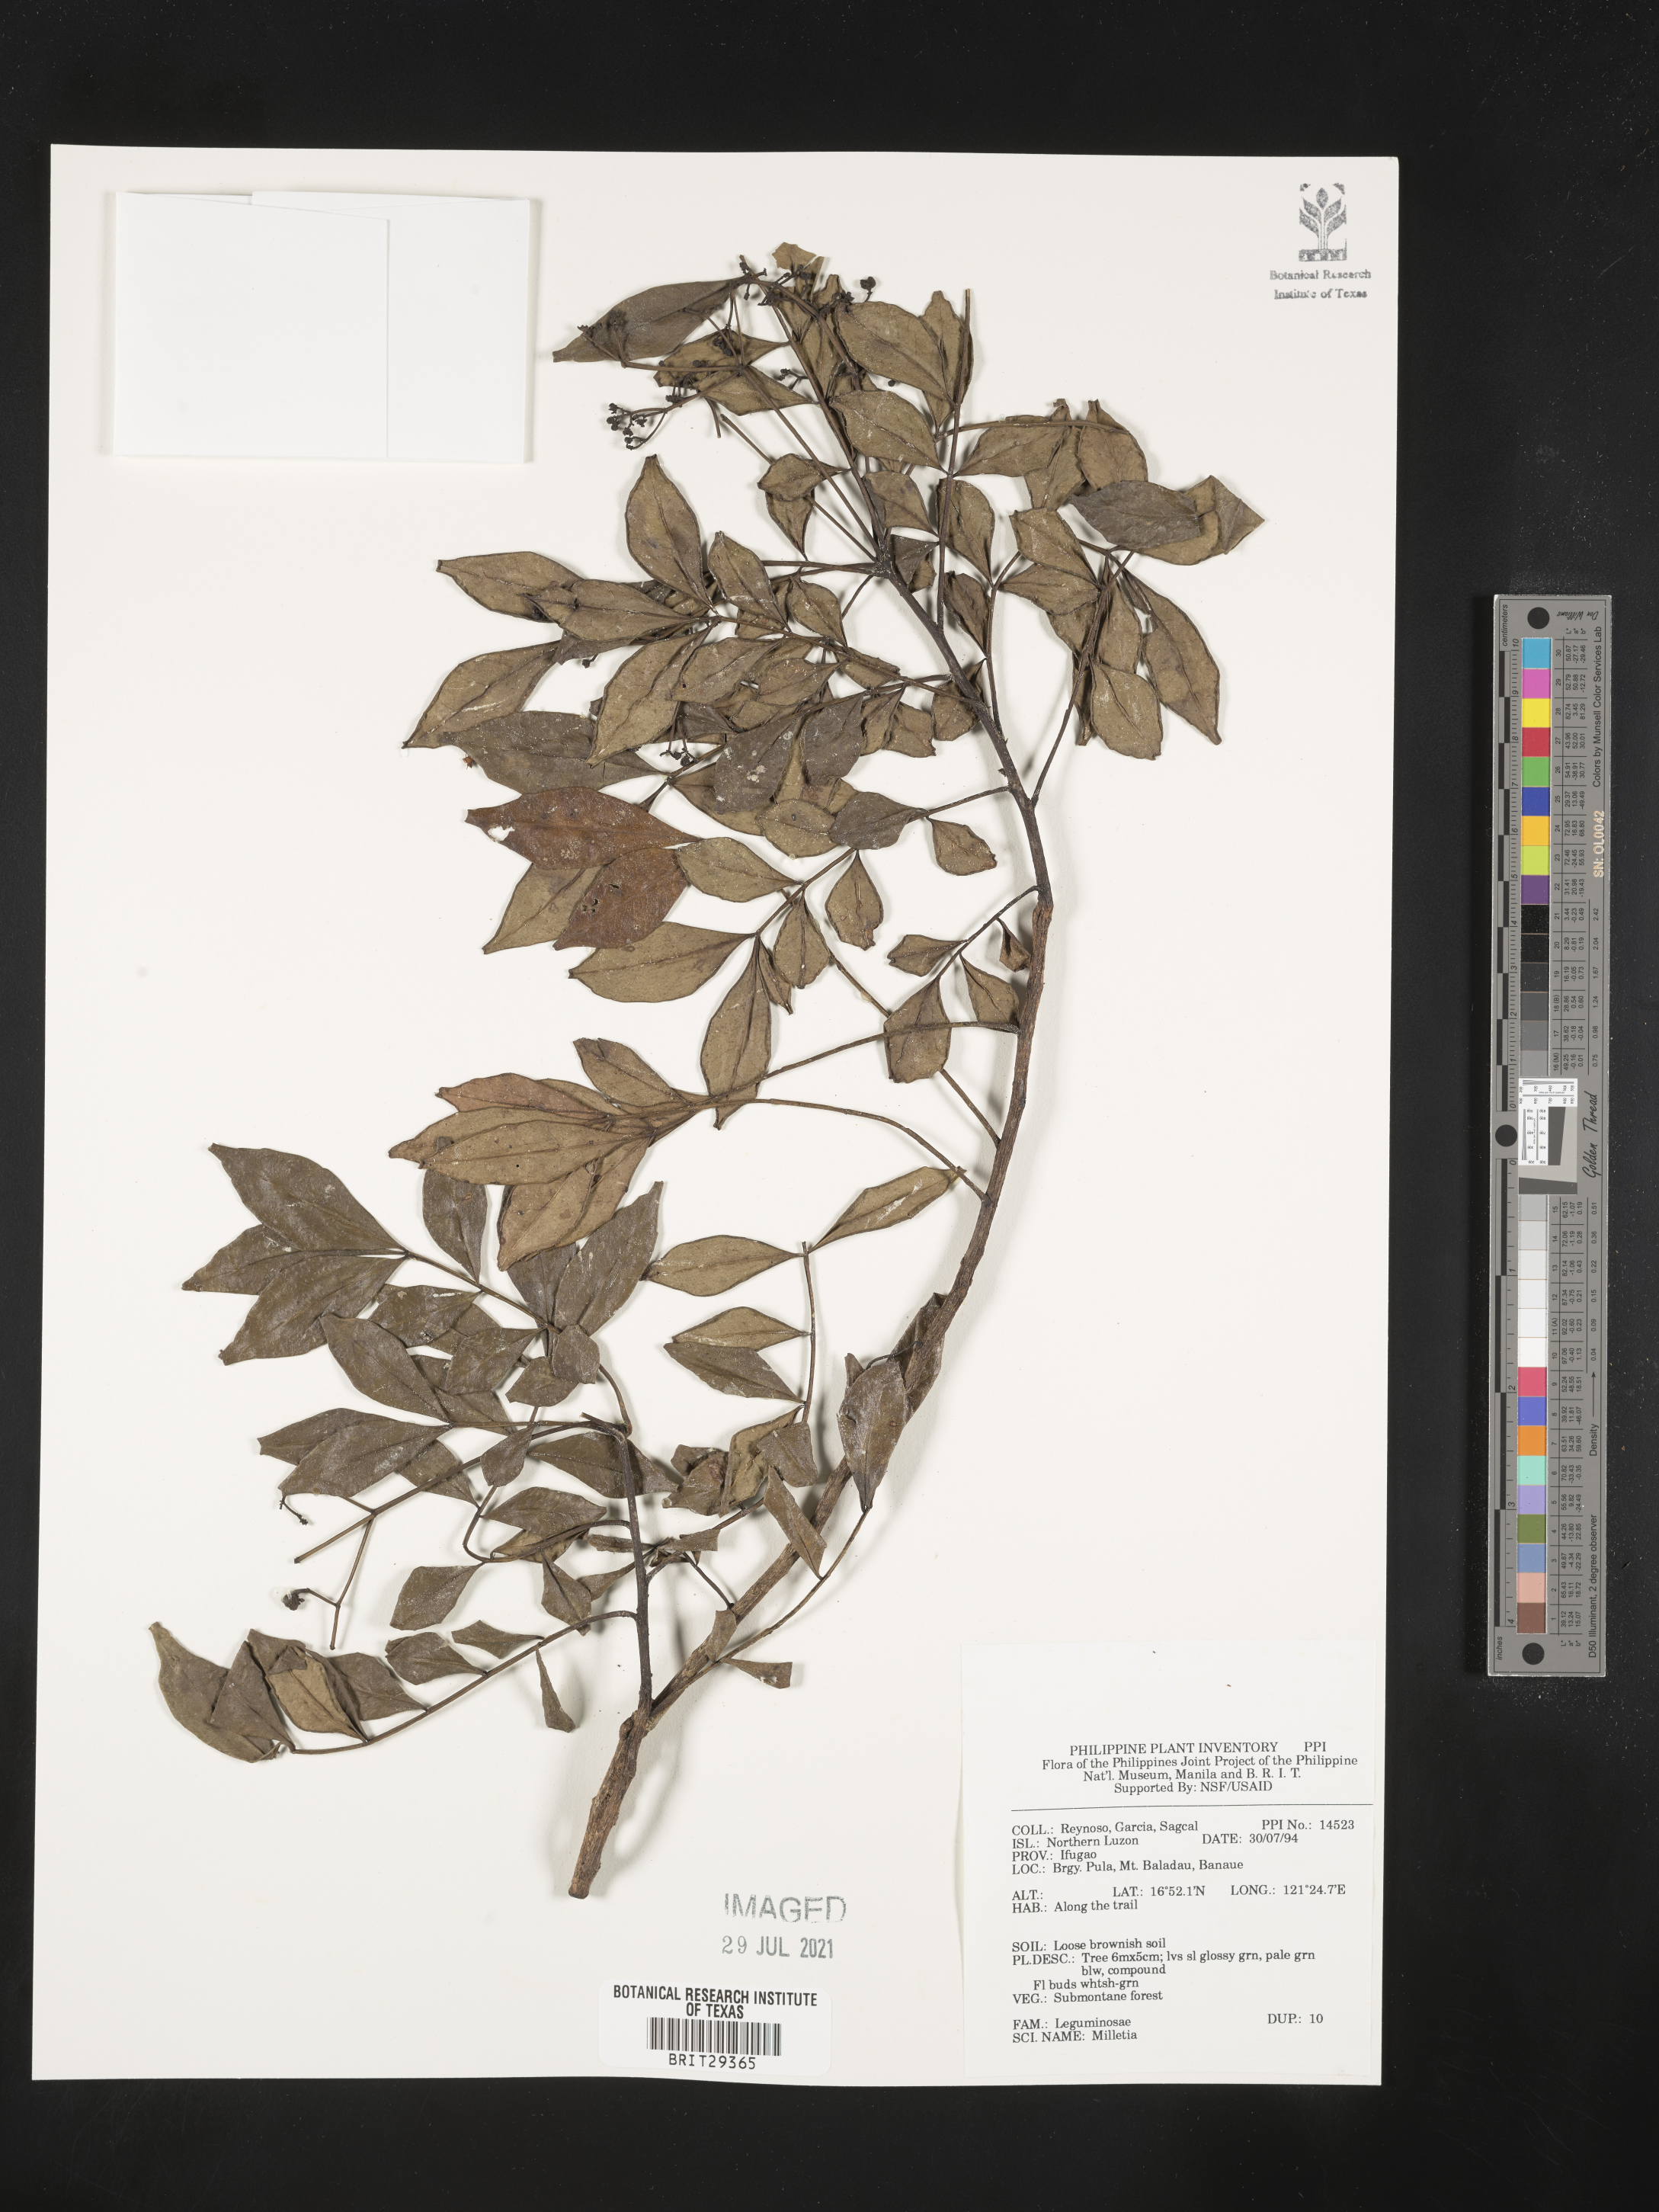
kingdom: Plantae
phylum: Tracheophyta
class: Magnoliopsida
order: Fabales
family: Fabaceae
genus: Millettia
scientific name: Millettia
